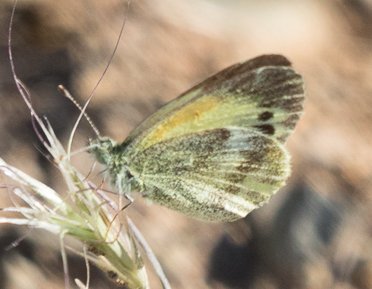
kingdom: Animalia
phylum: Arthropoda
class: Insecta
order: Lepidoptera
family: Pieridae
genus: Nathalis
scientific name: Nathalis iole
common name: Dainty Sulphur
